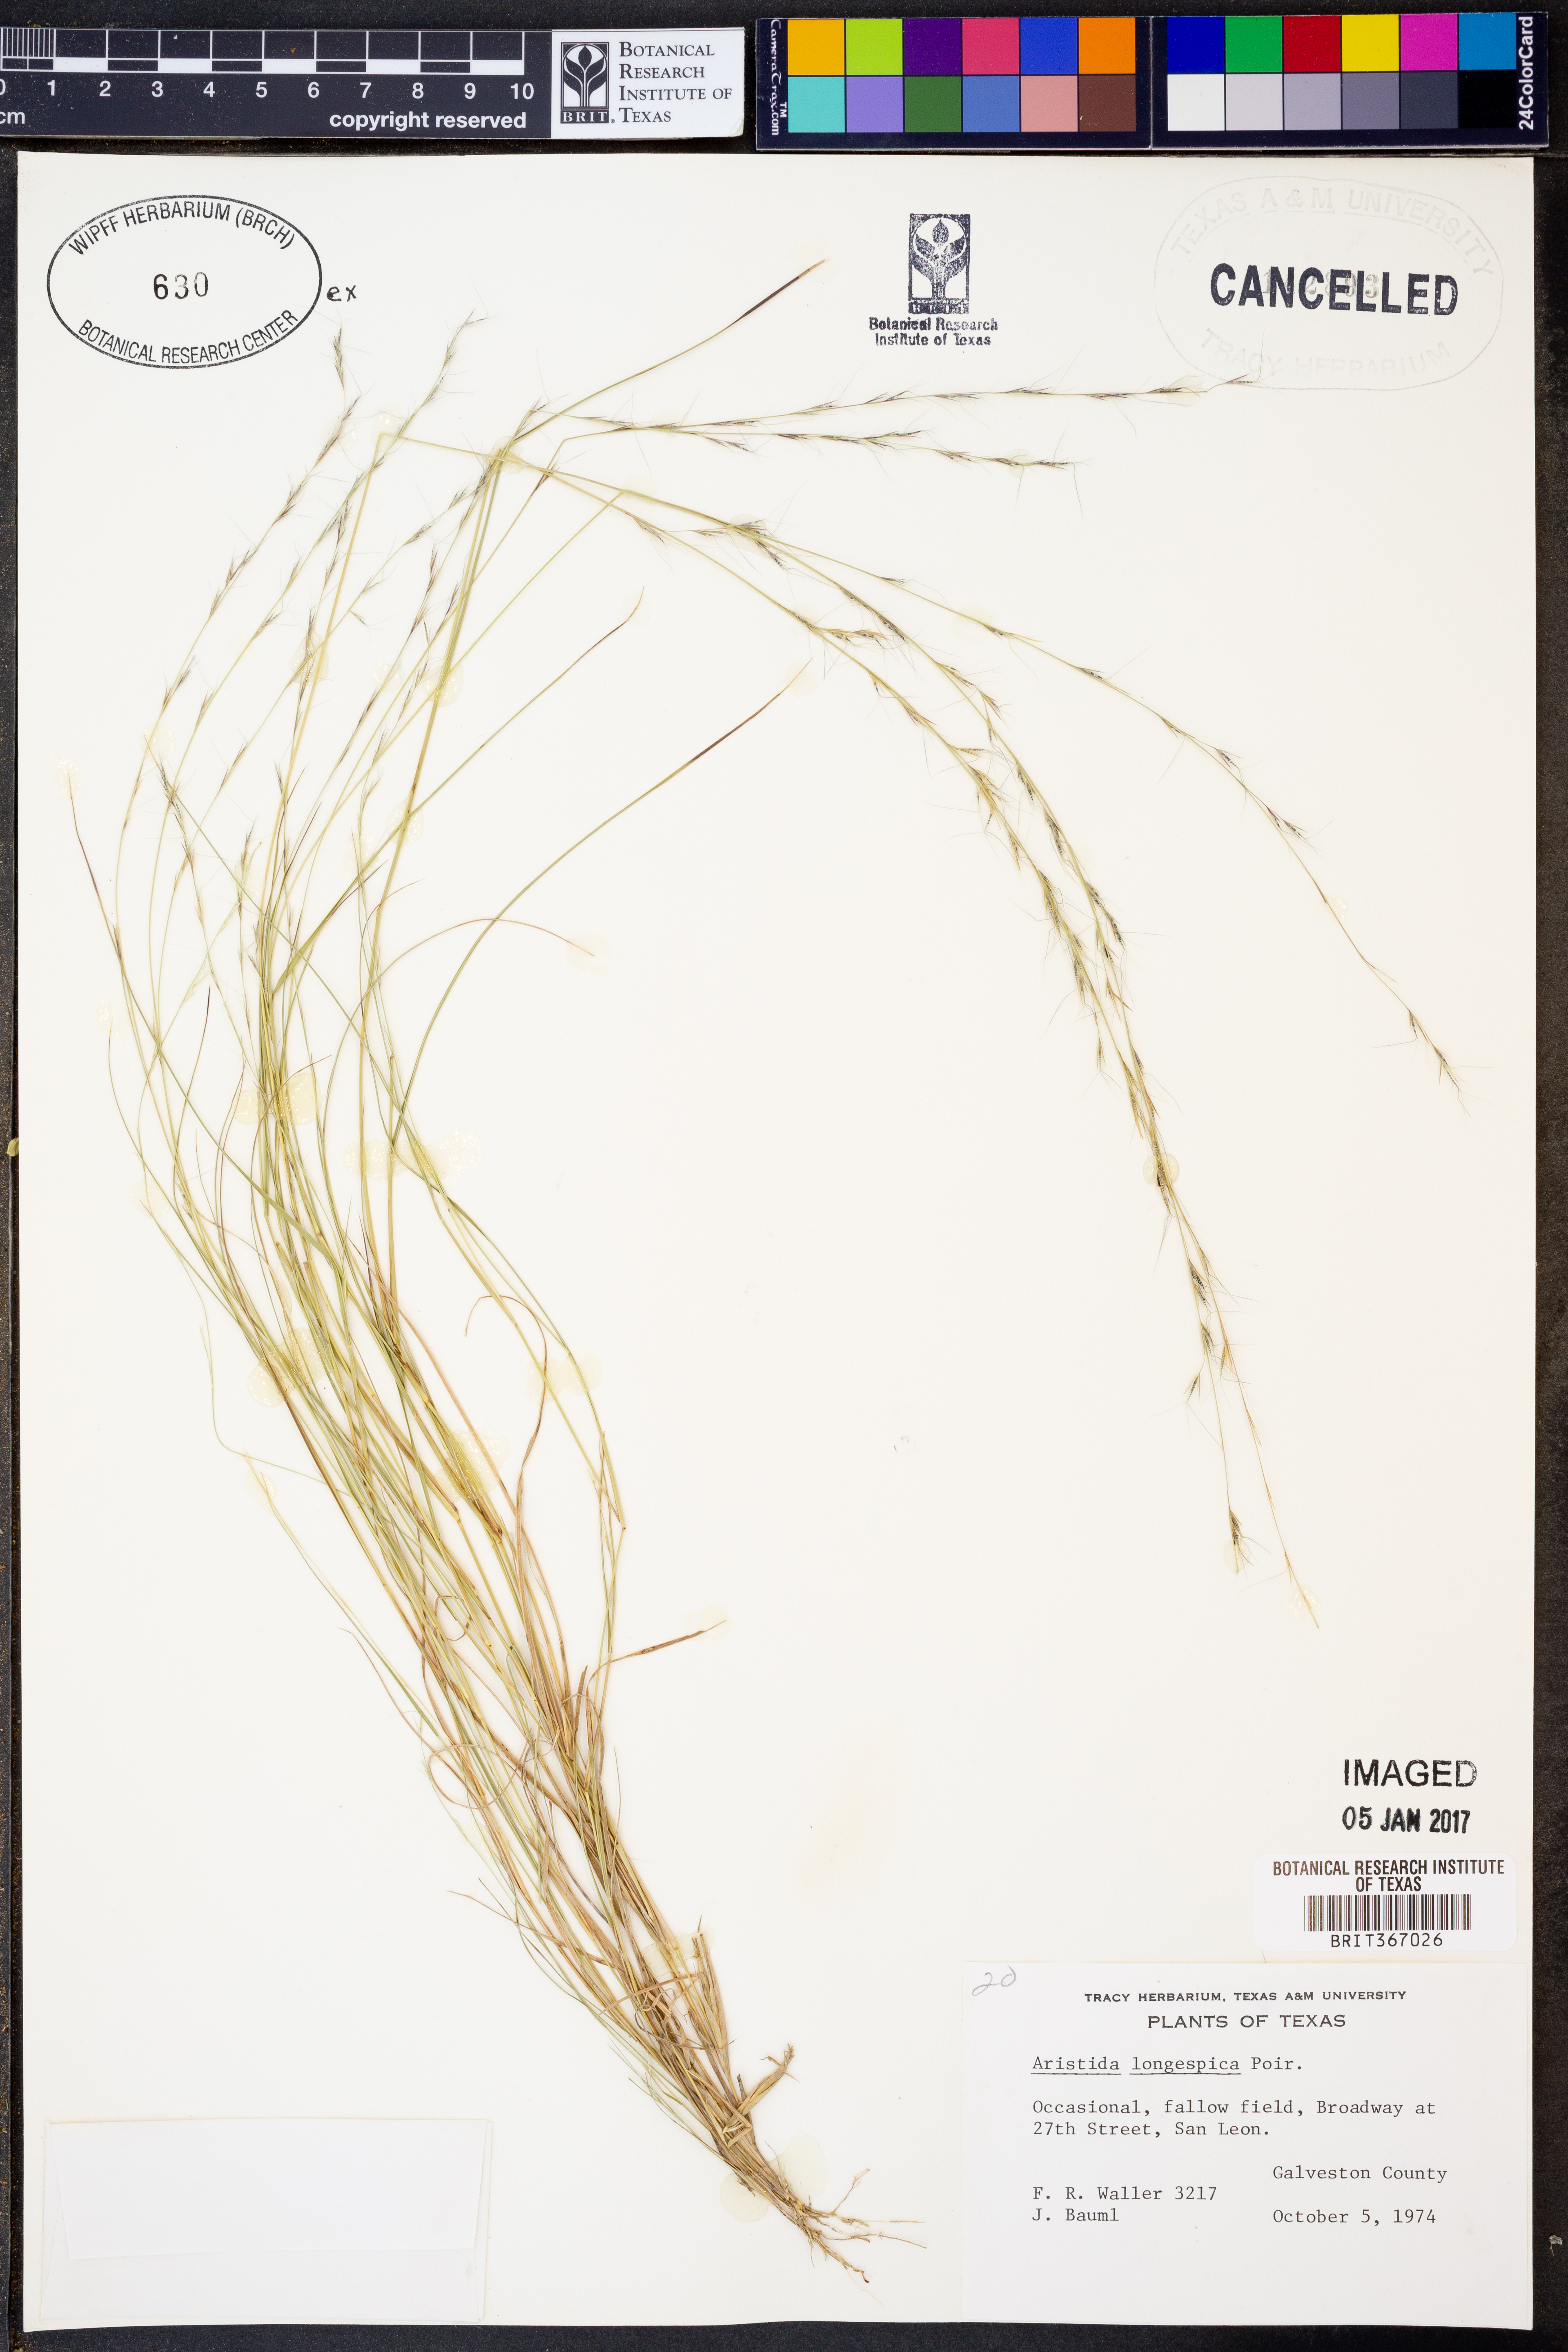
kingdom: Plantae
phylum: Tracheophyta
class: Liliopsida
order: Poales
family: Poaceae
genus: Aristida
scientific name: Aristida longespica
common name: Long-spiked triple-awned grass
